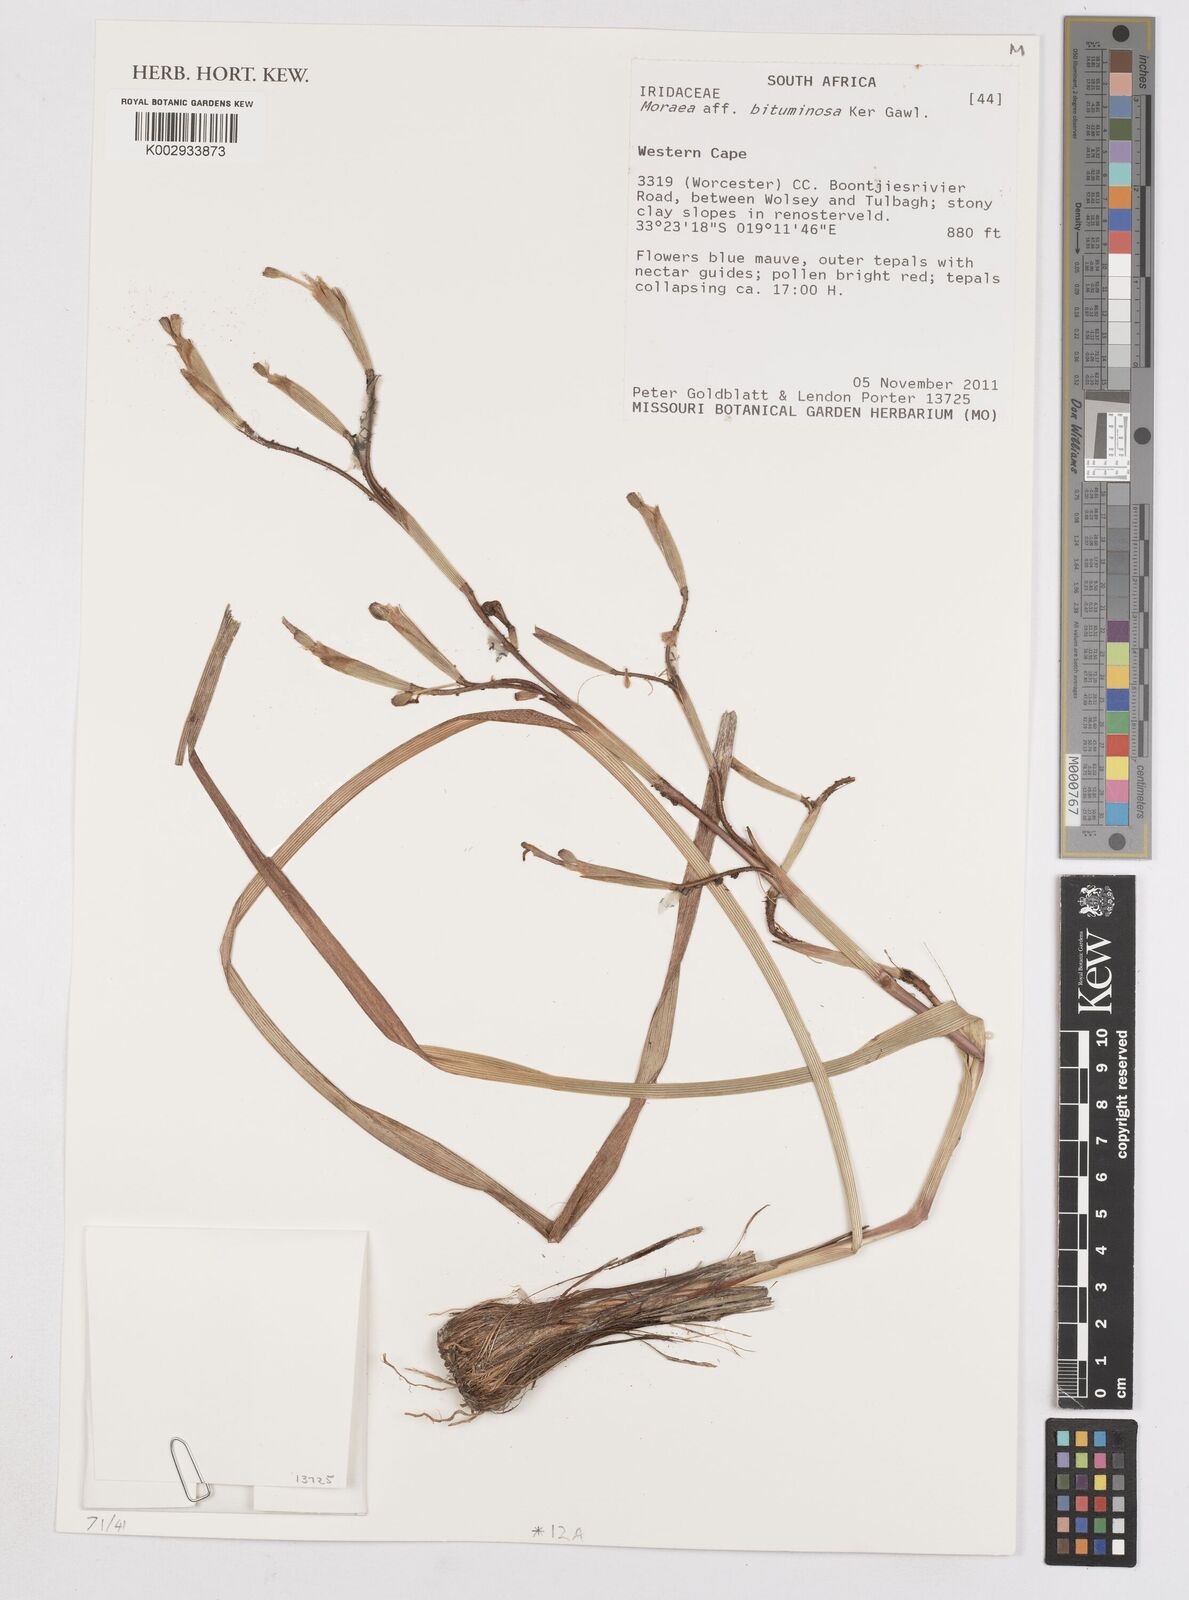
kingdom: Plantae
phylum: Tracheophyta
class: Liliopsida
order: Asparagales
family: Iridaceae
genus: Moraea
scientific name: Moraea bituminosa
